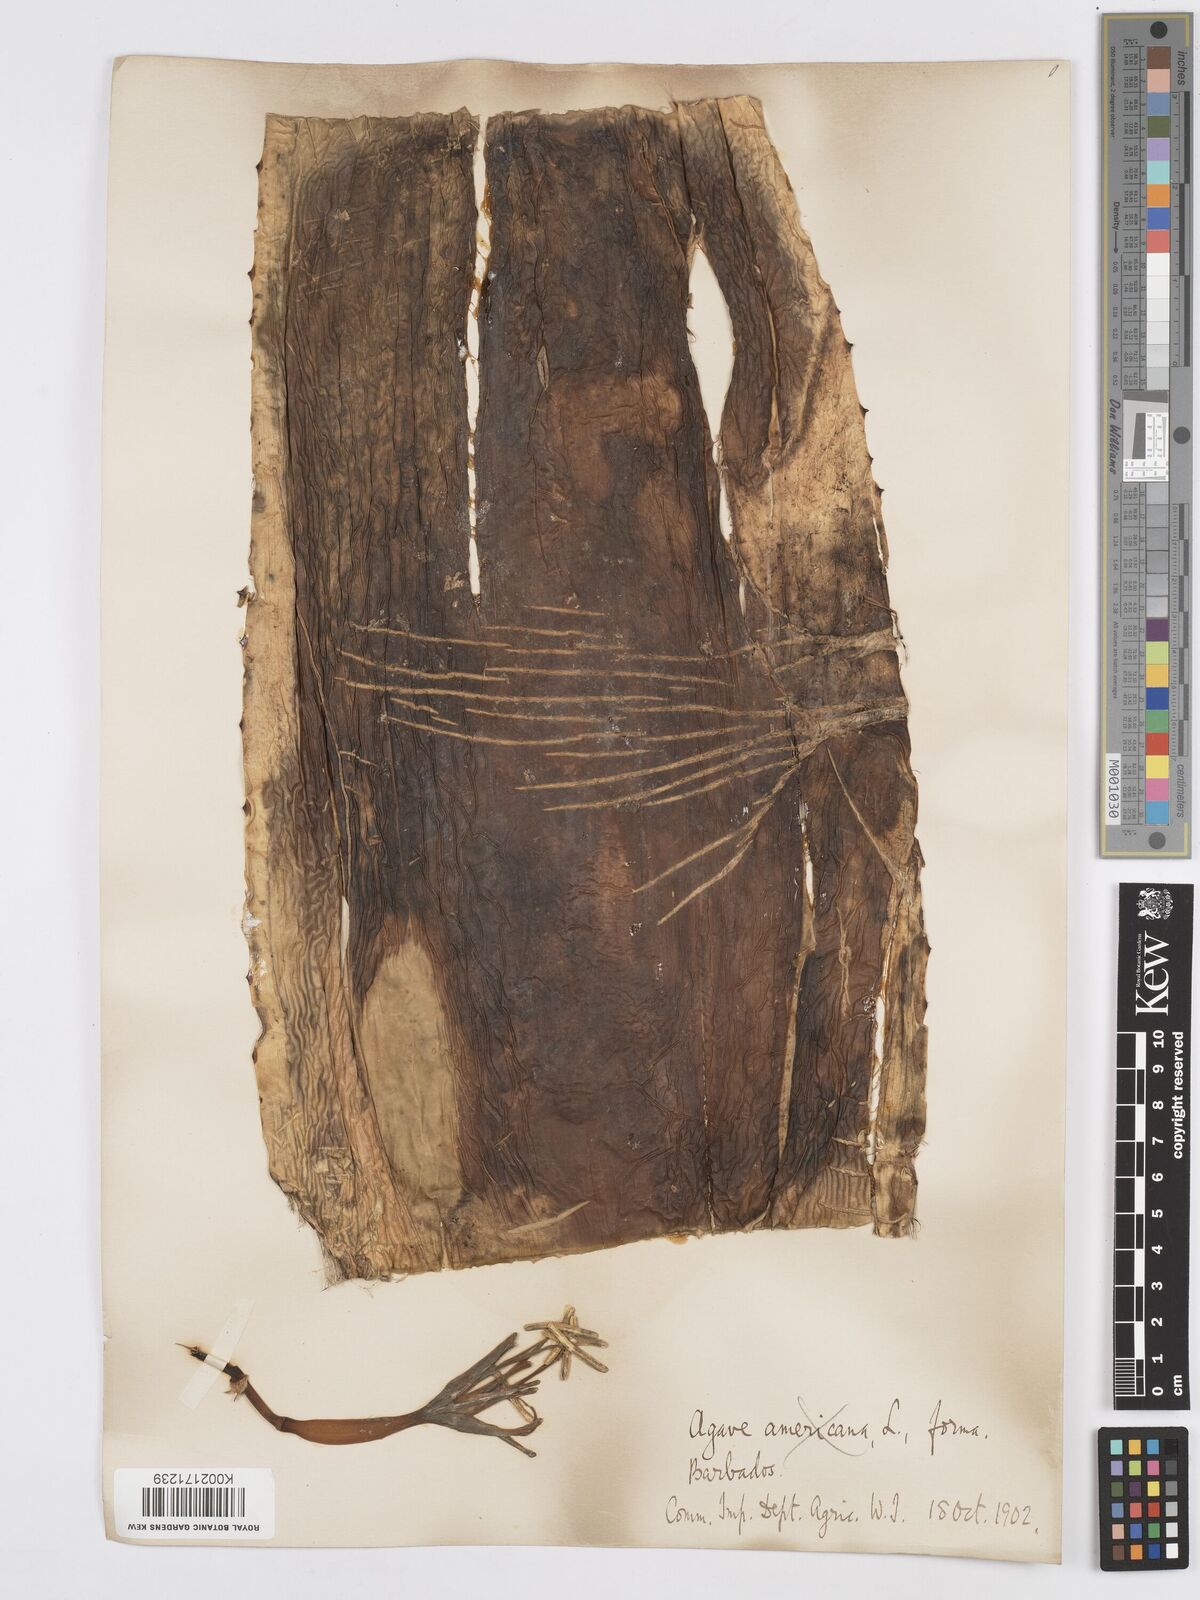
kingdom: Plantae
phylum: Tracheophyta
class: Liliopsida
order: Asparagales
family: Asparagaceae
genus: Agave
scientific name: Agave
